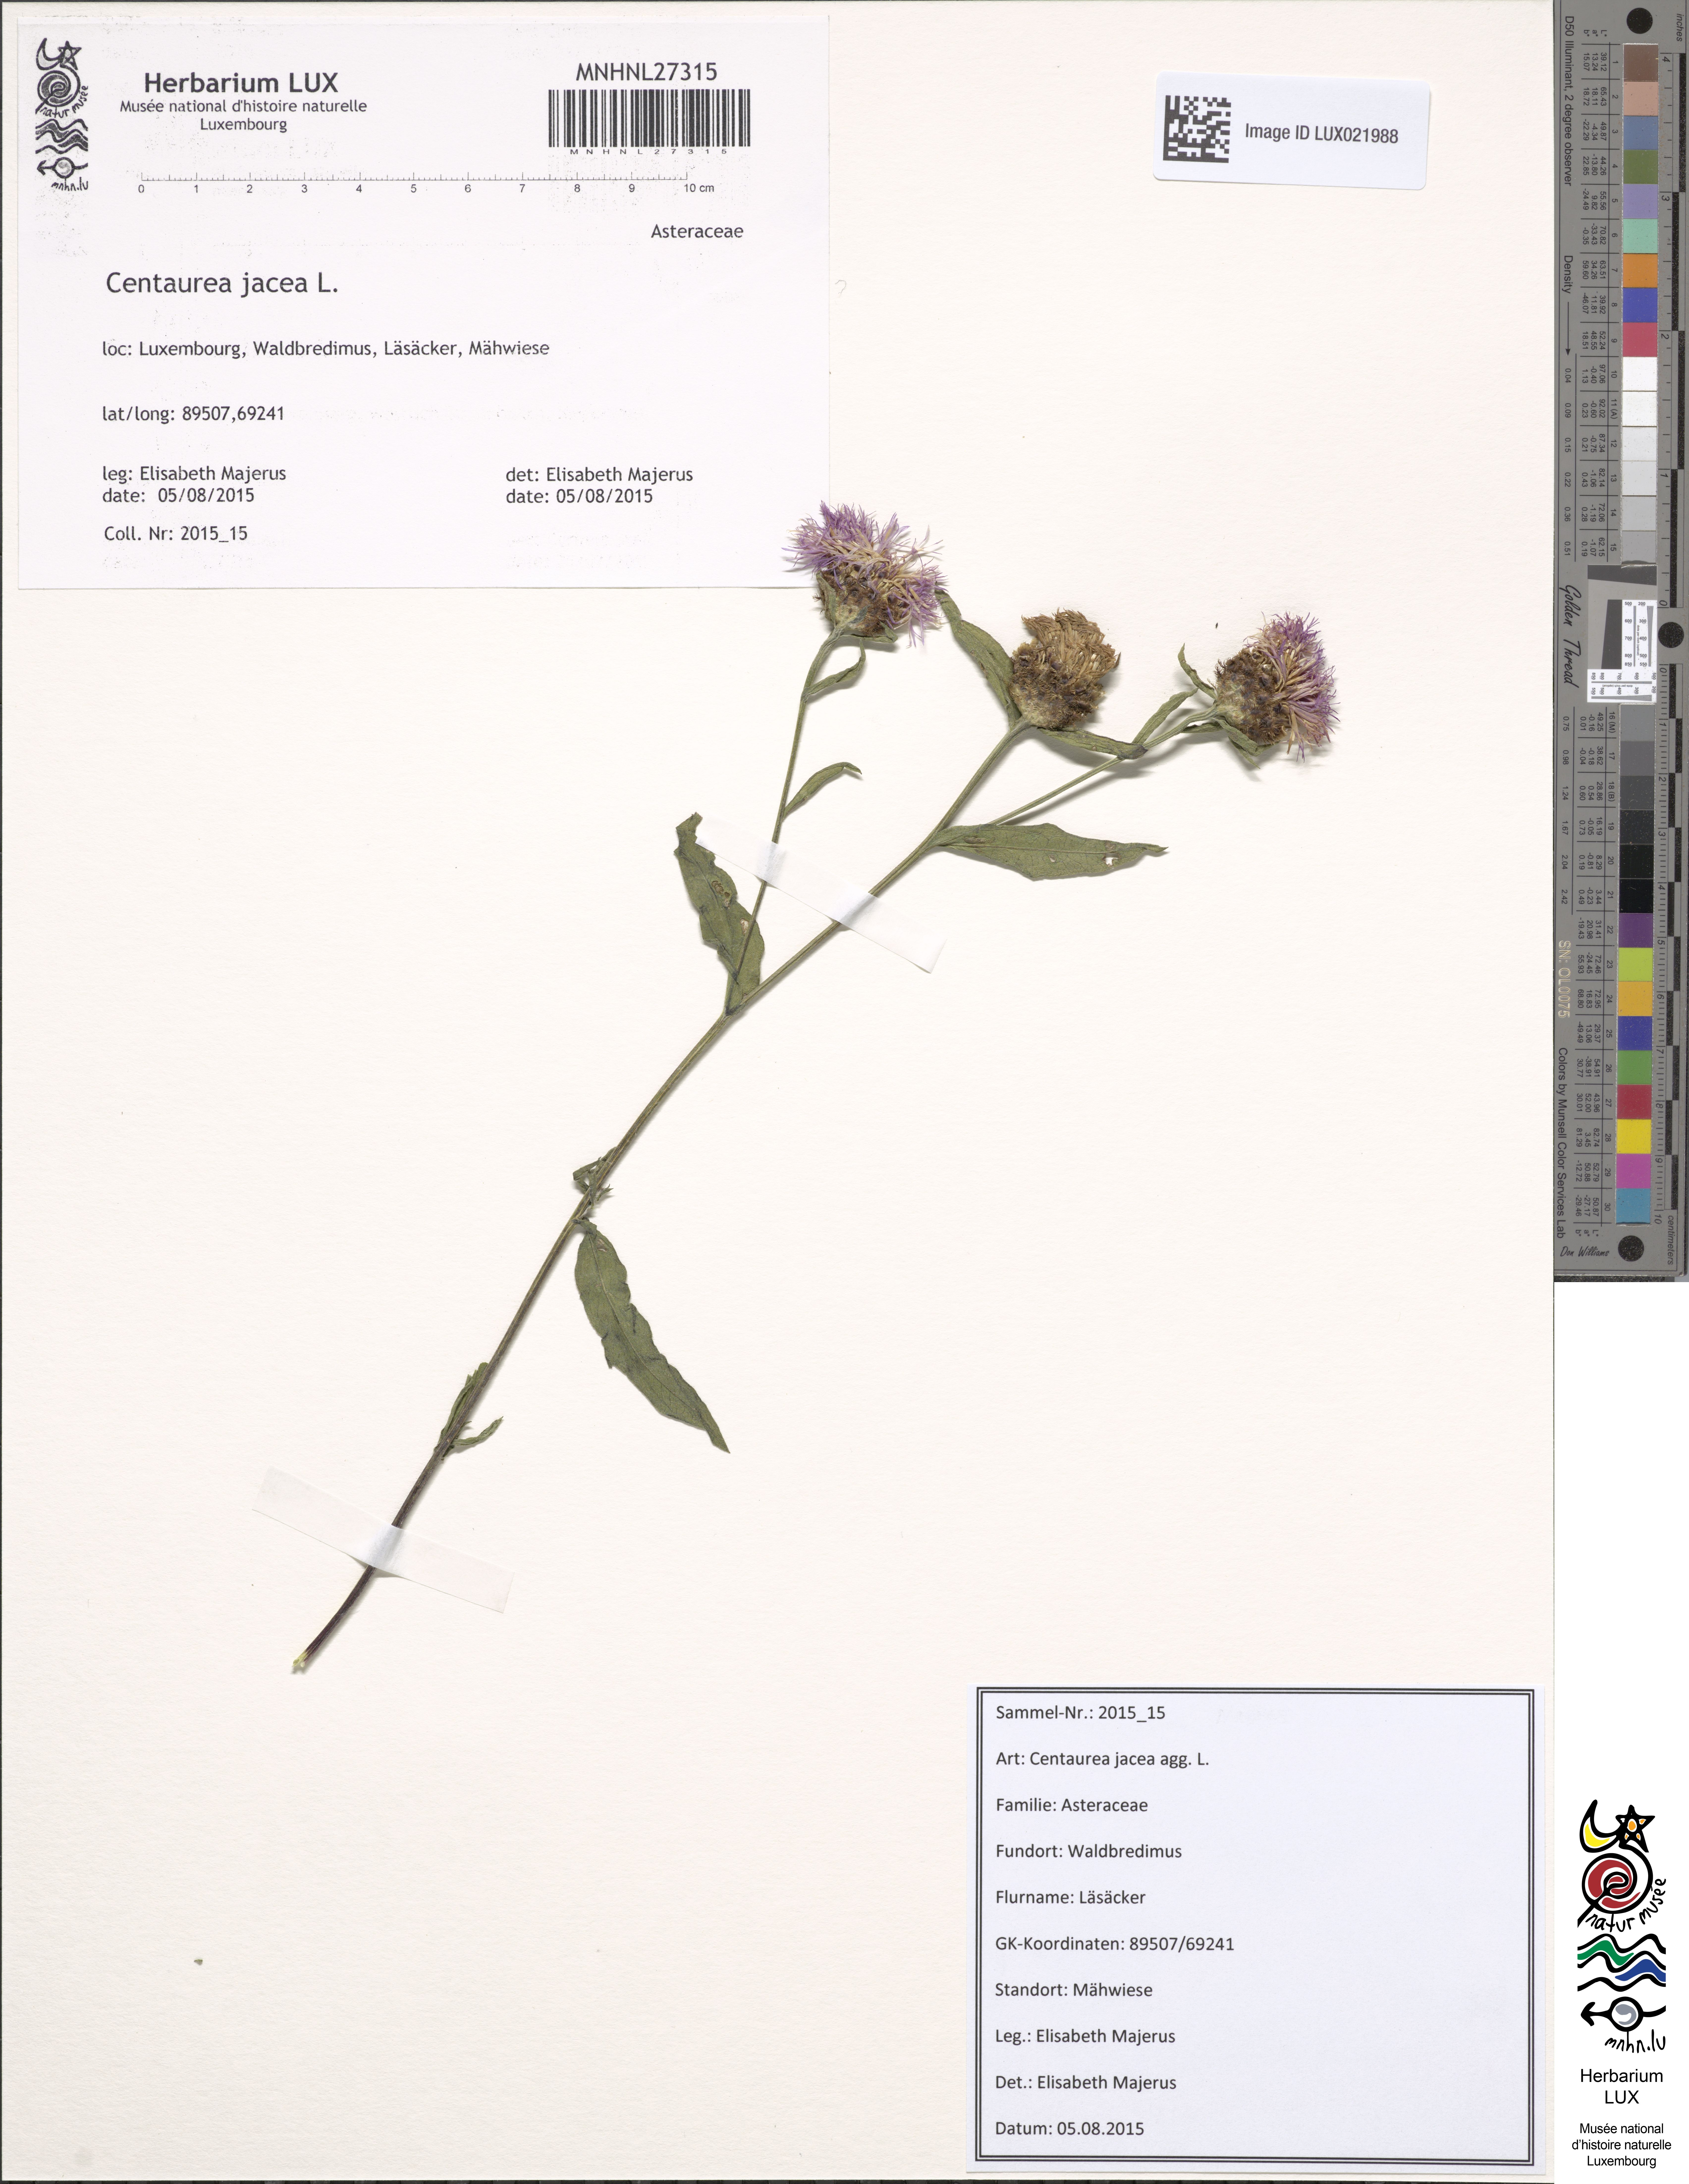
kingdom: Plantae
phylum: Tracheophyta
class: Magnoliopsida
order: Asterales
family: Asteraceae
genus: Centaurea
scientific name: Centaurea jacea
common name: Brown knapweed
